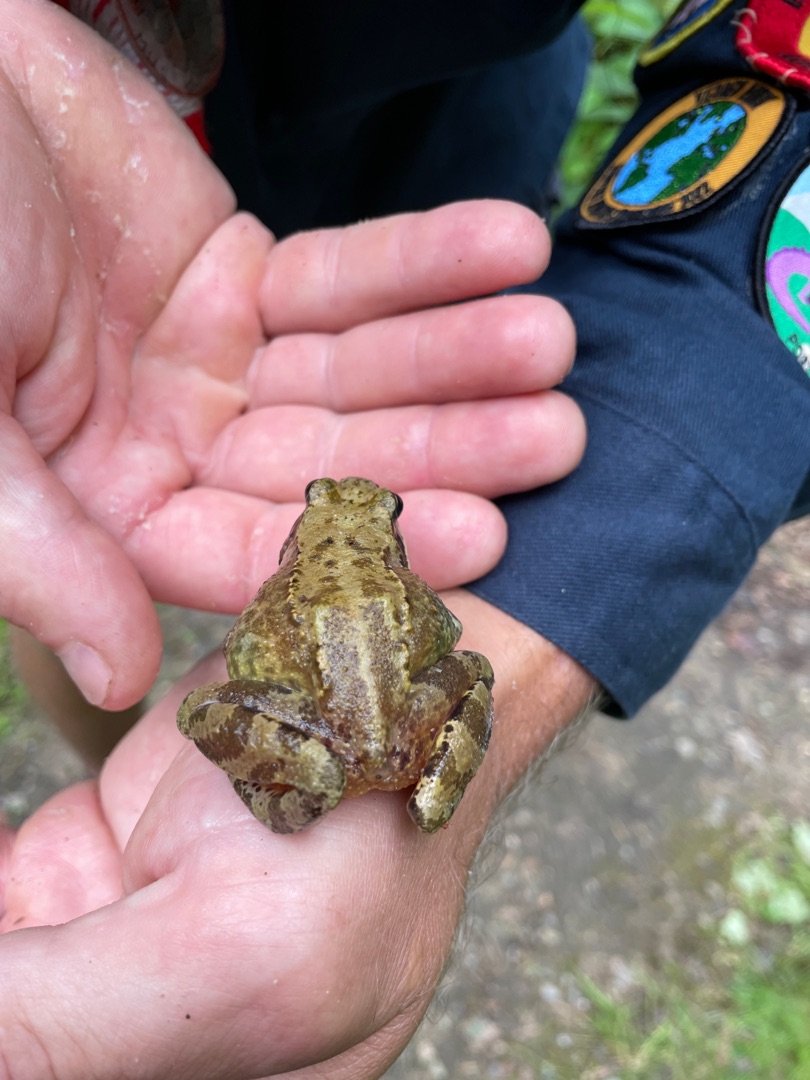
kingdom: Animalia
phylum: Chordata
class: Amphibia
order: Anura
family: Ranidae
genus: Rana
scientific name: Rana temporaria
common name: Butsnudet frø
